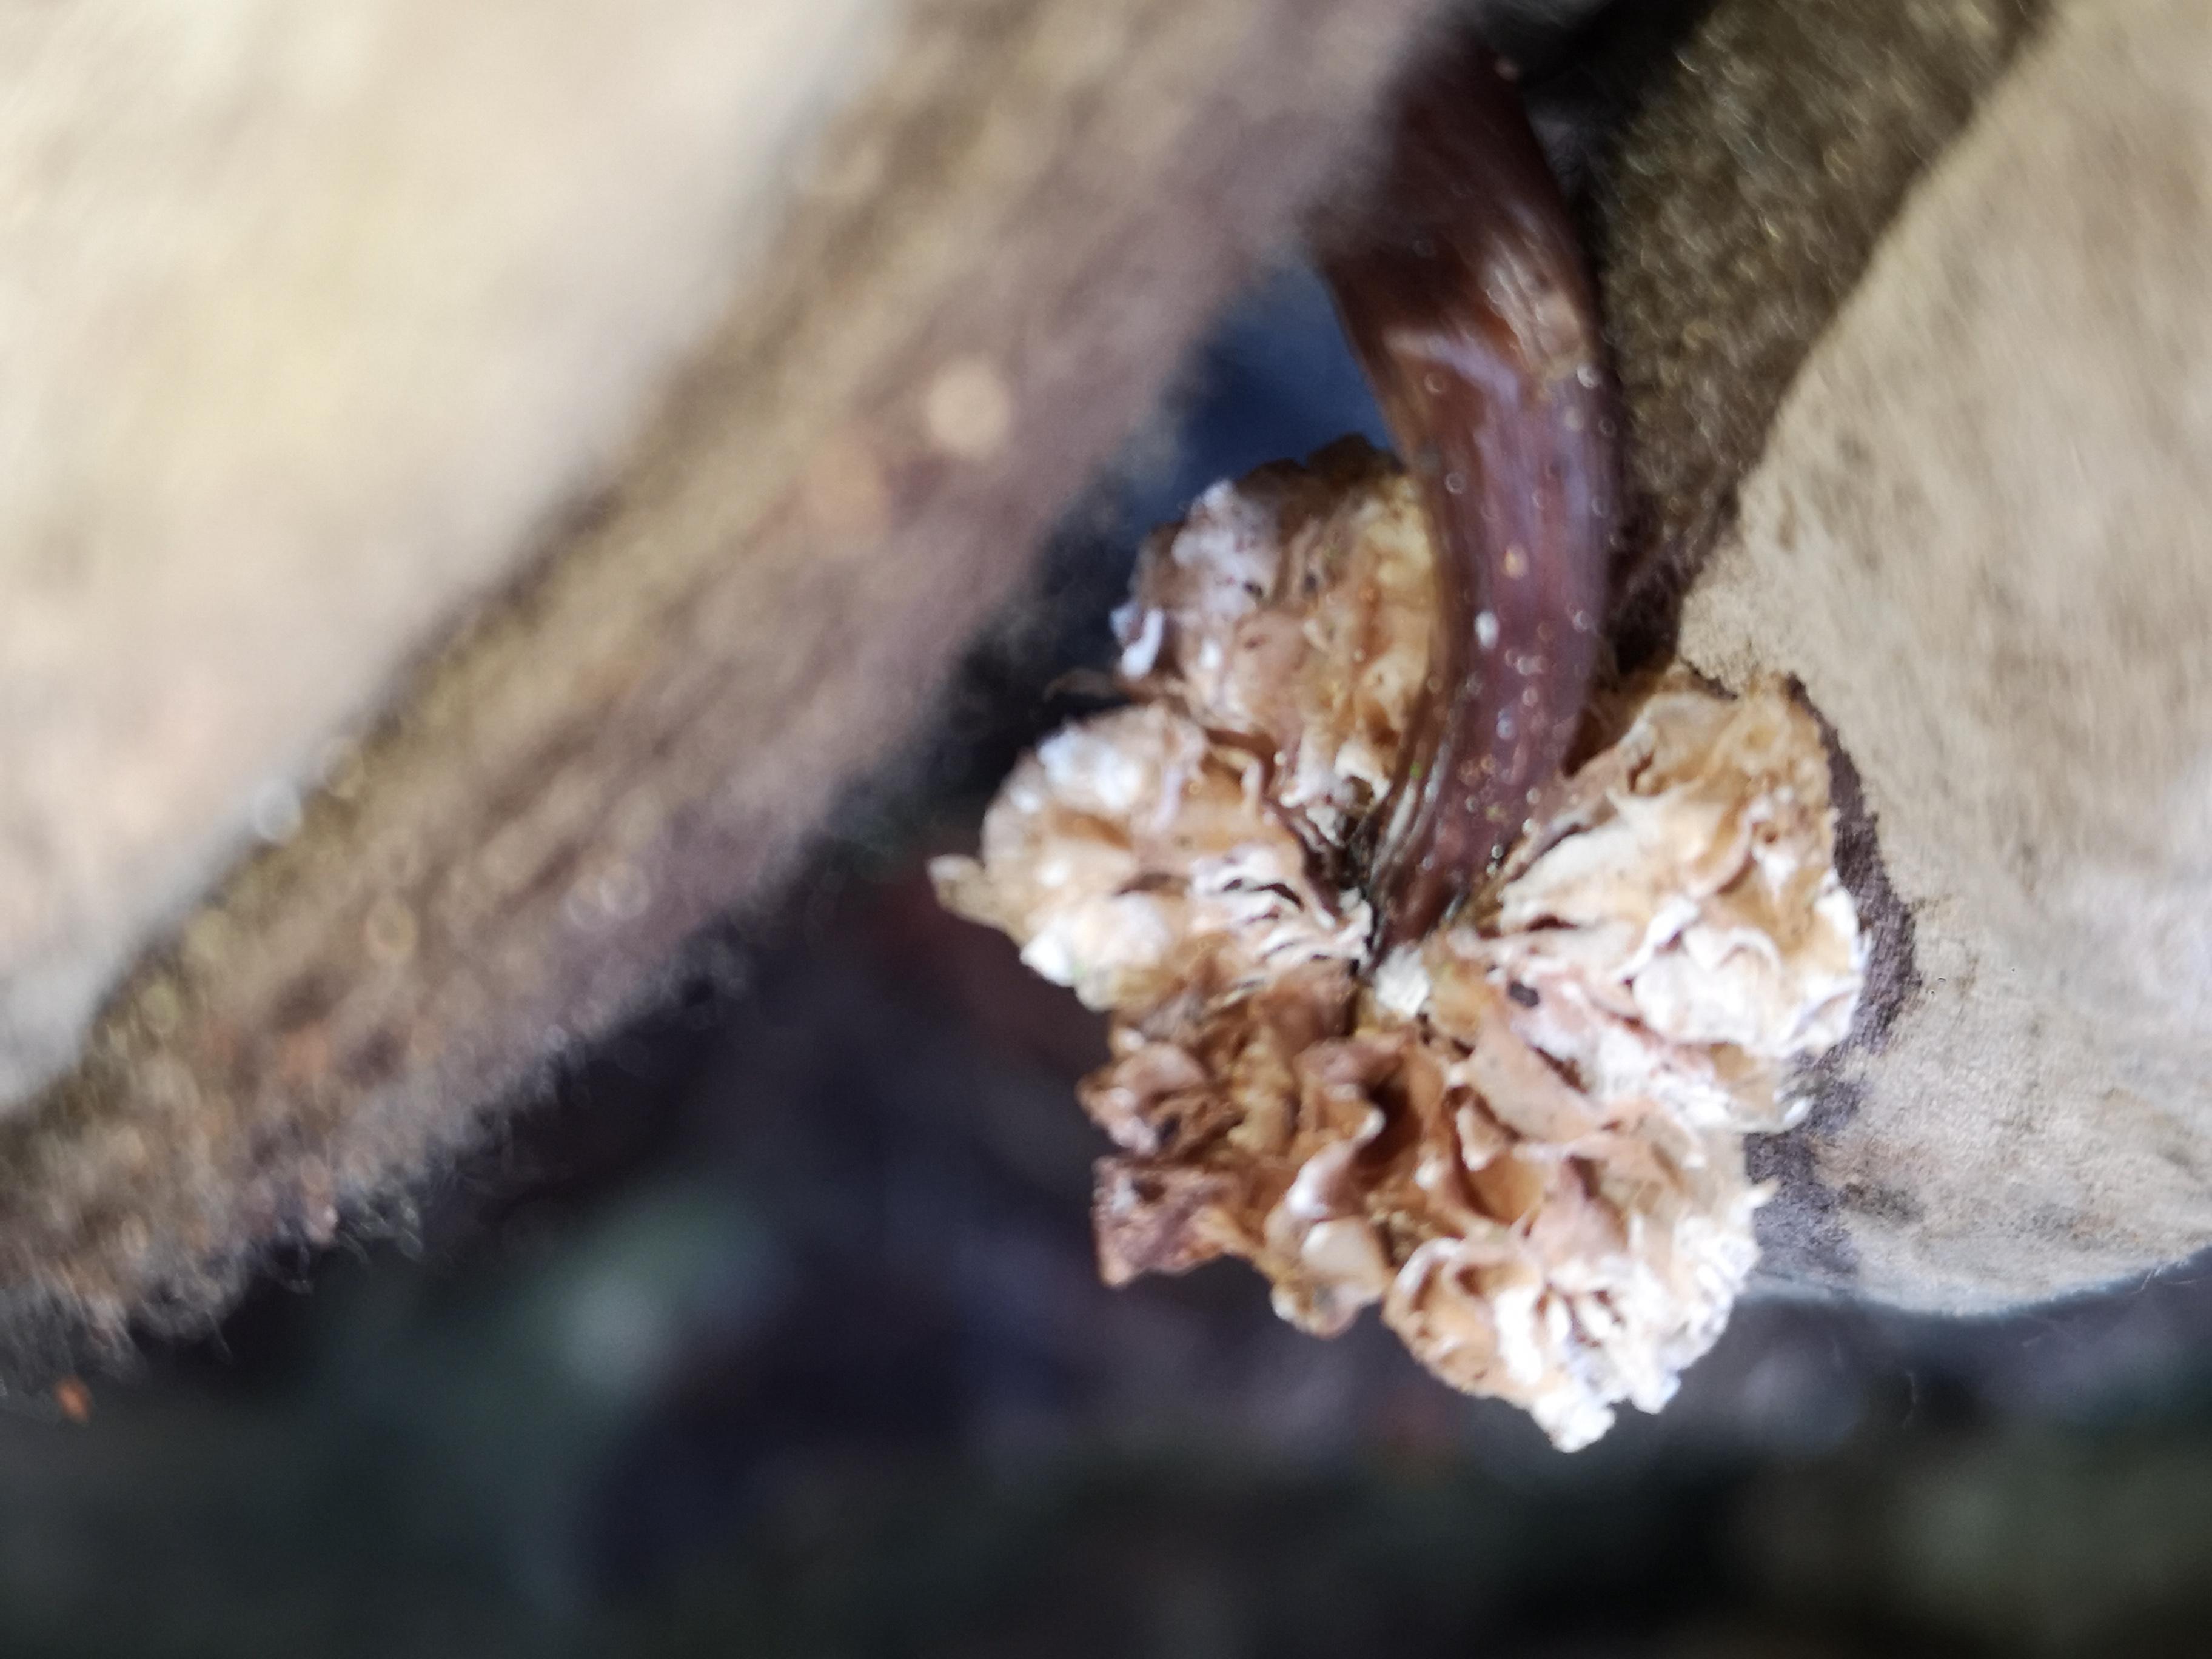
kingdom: Fungi
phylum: Basidiomycota
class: Agaricomycetes
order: Agaricales
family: Mycenaceae
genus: Mycena
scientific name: Mycena
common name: huesvamp
